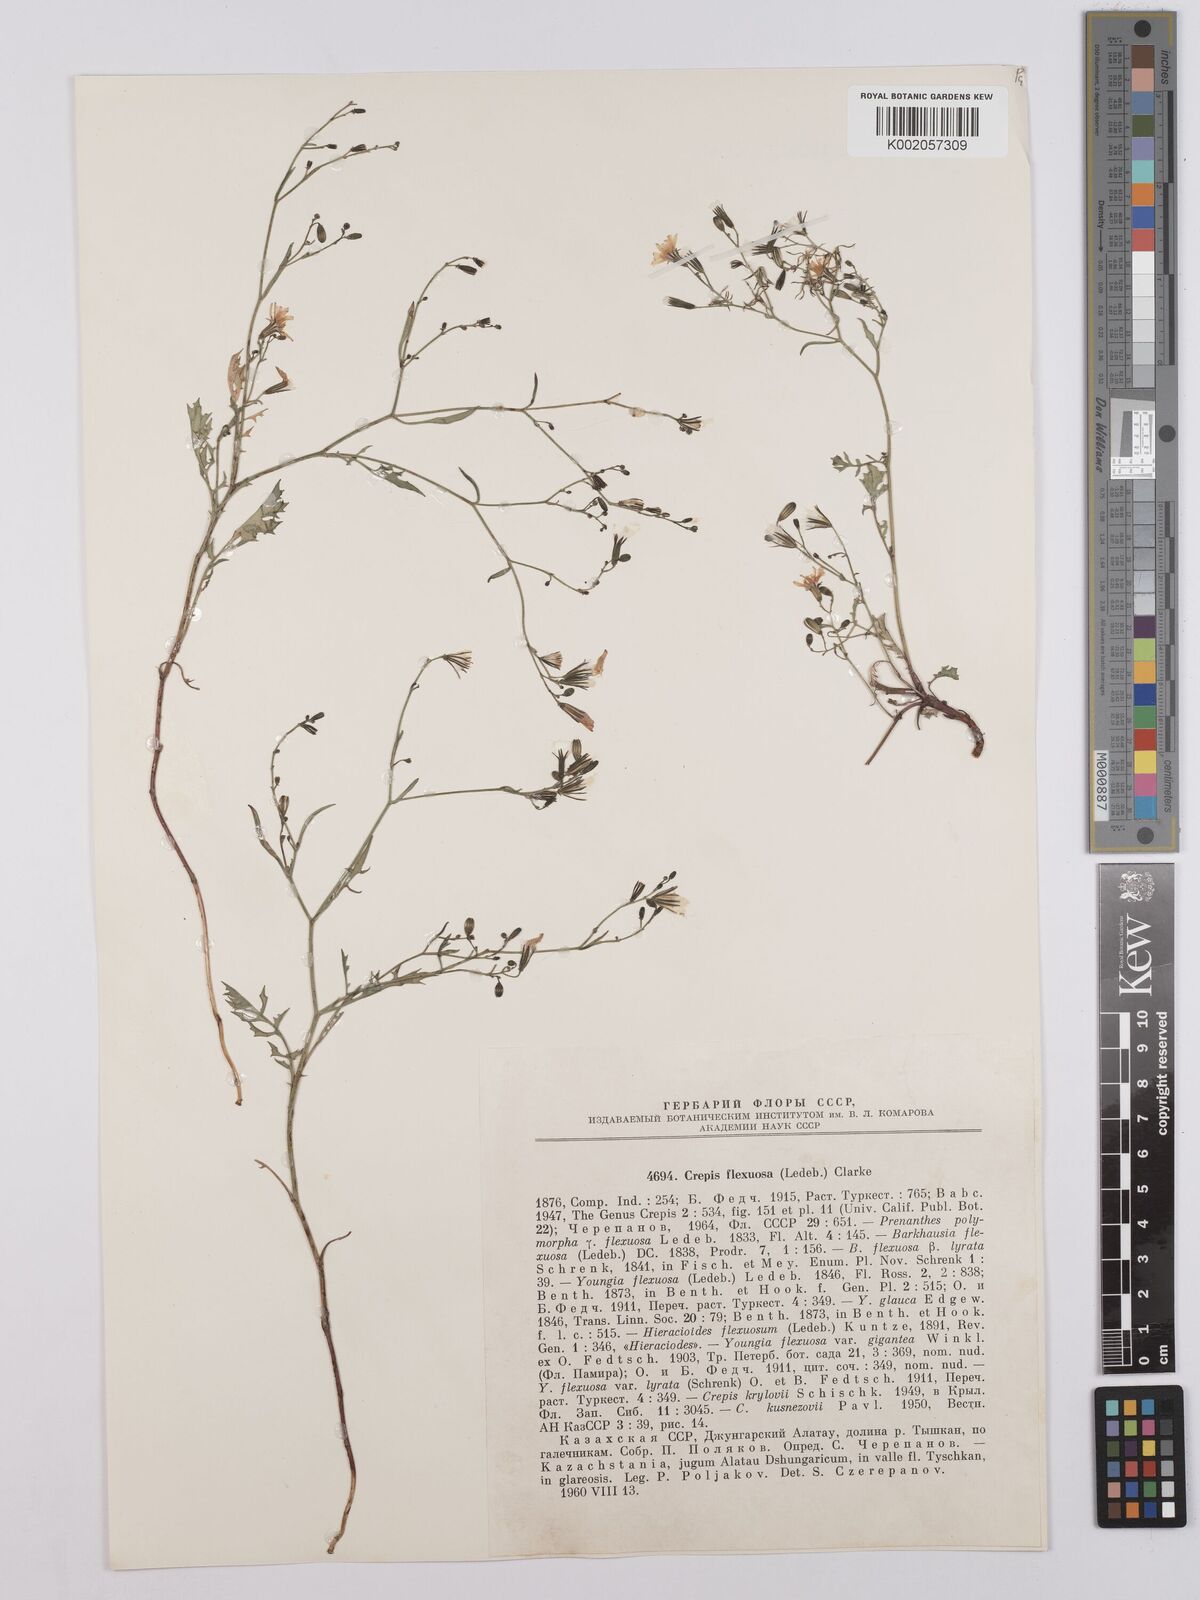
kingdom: Plantae
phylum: Tracheophyta
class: Magnoliopsida
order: Asterales
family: Asteraceae
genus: Crepis
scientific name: Crepis
